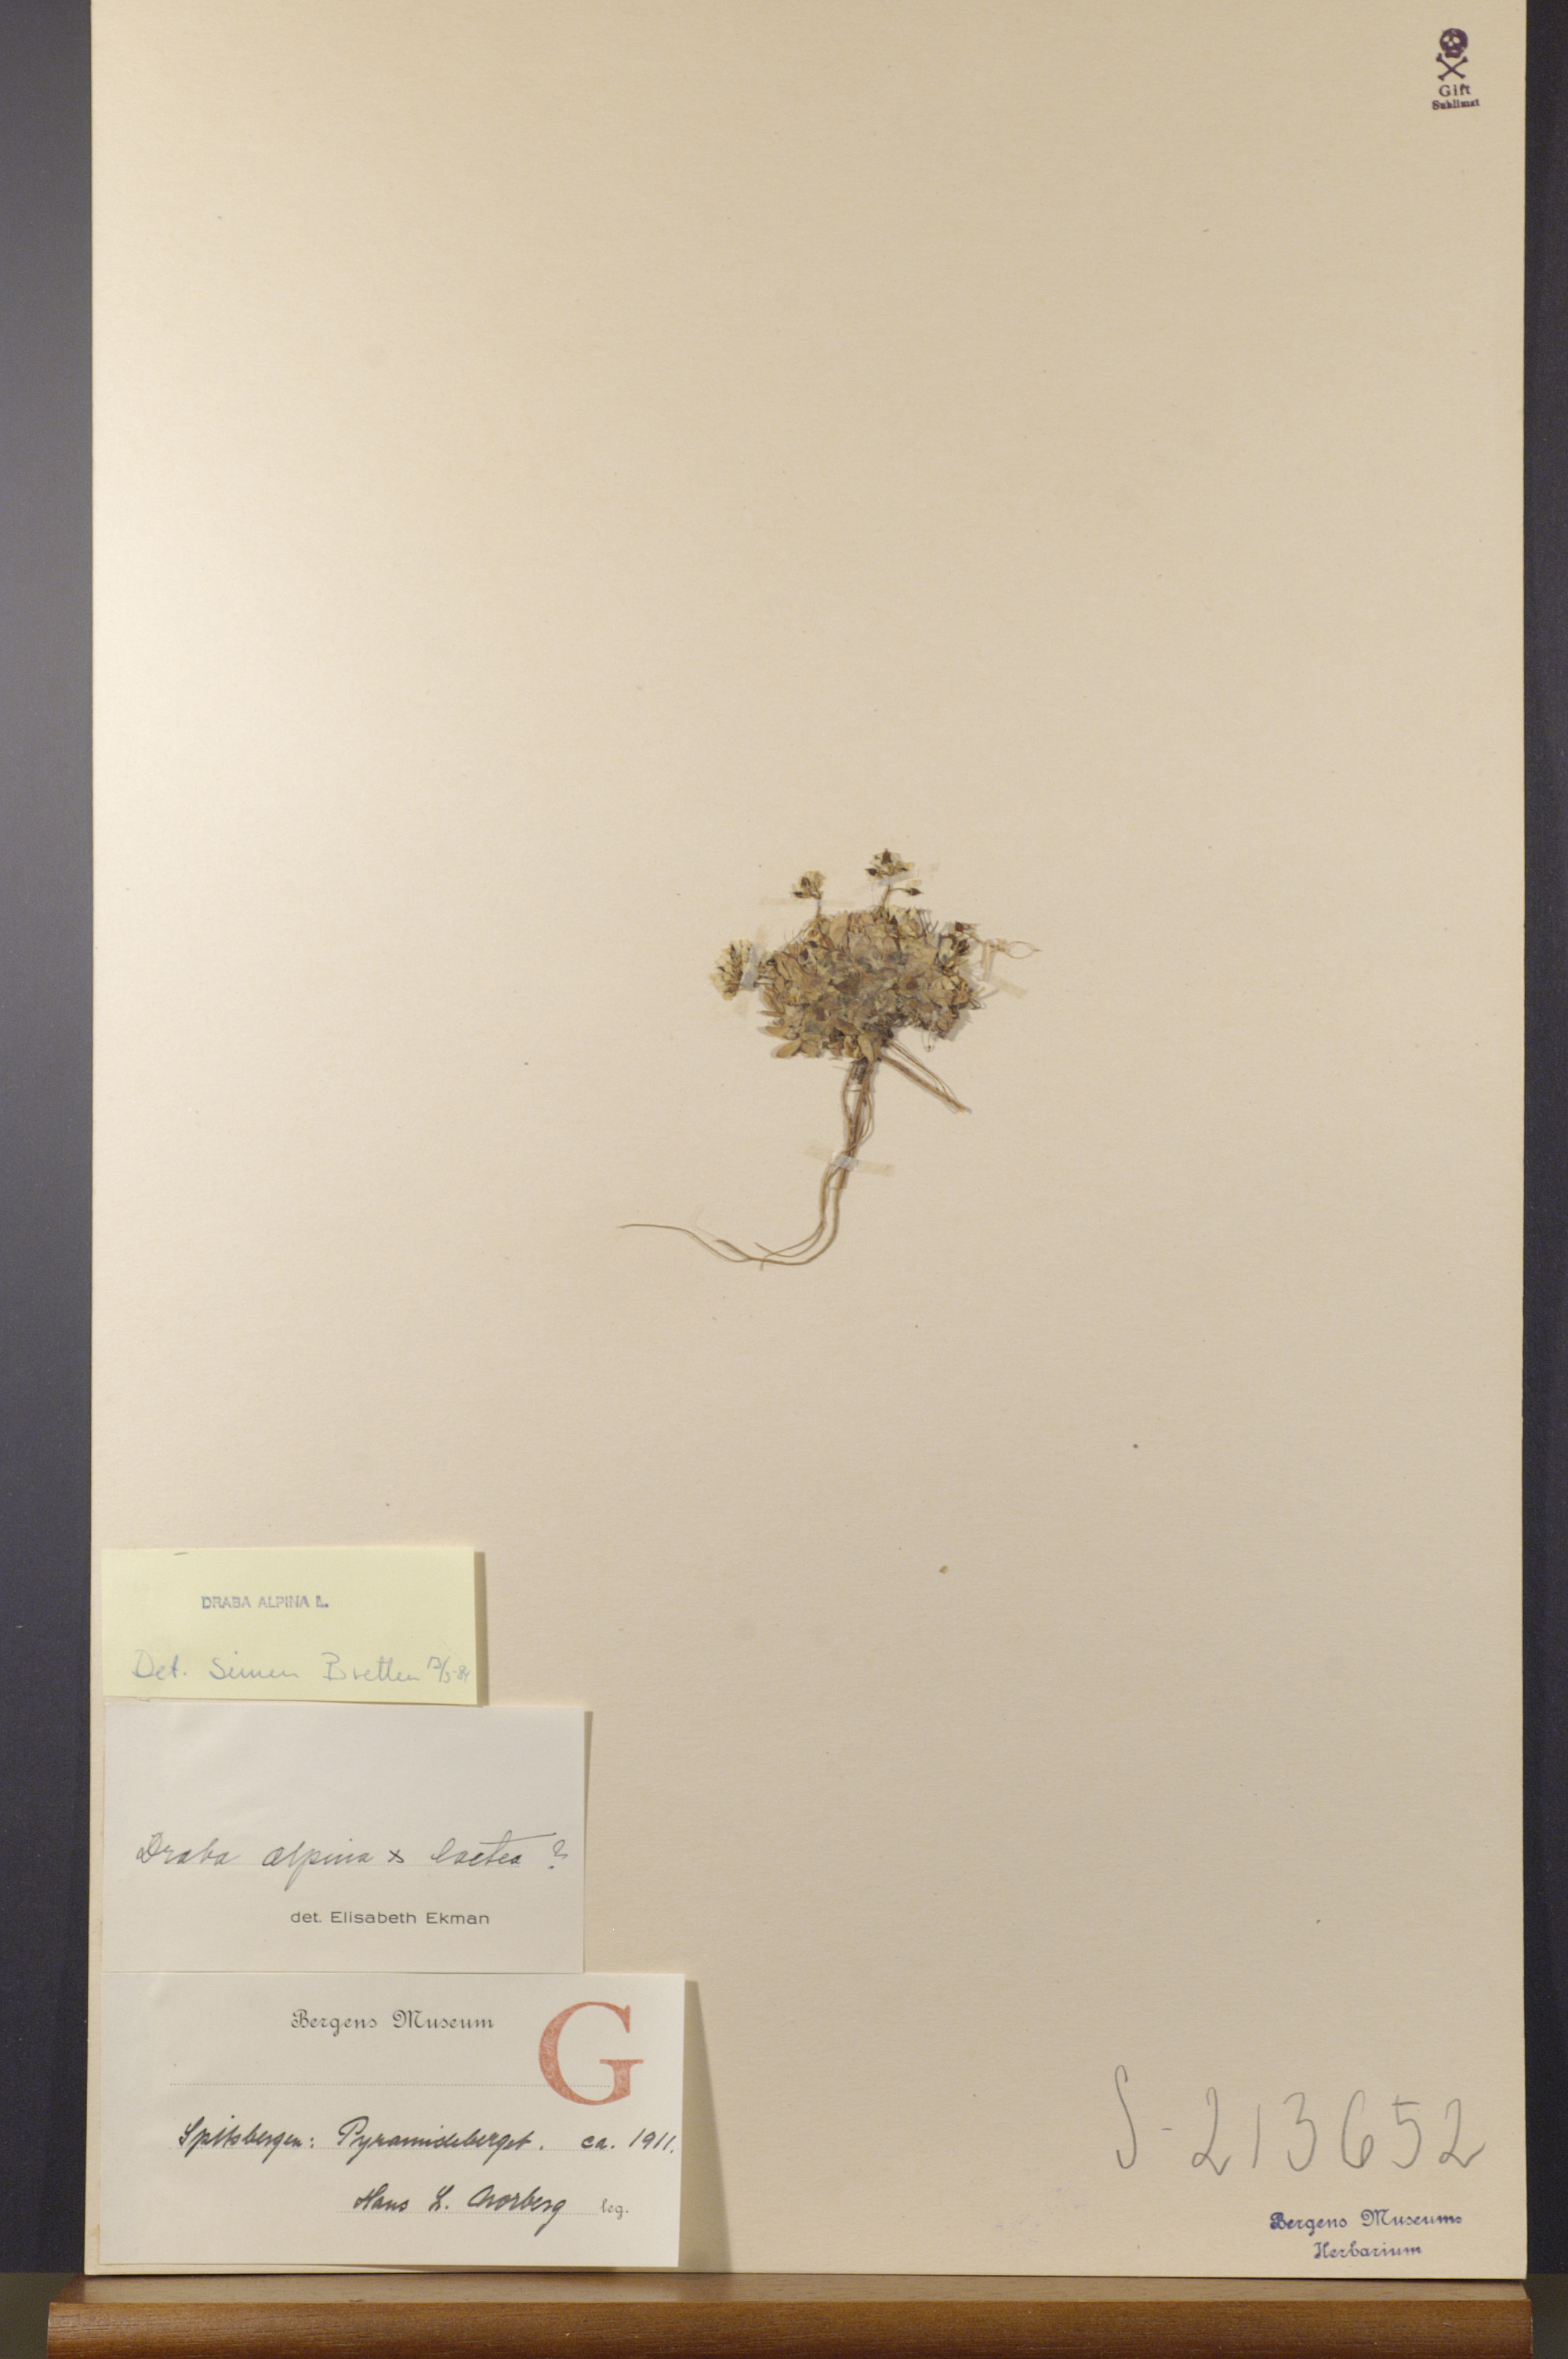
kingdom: Plantae
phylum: Tracheophyta
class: Magnoliopsida
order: Brassicales
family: Brassicaceae
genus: Draba
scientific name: Draba alpina
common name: Alpine draba
